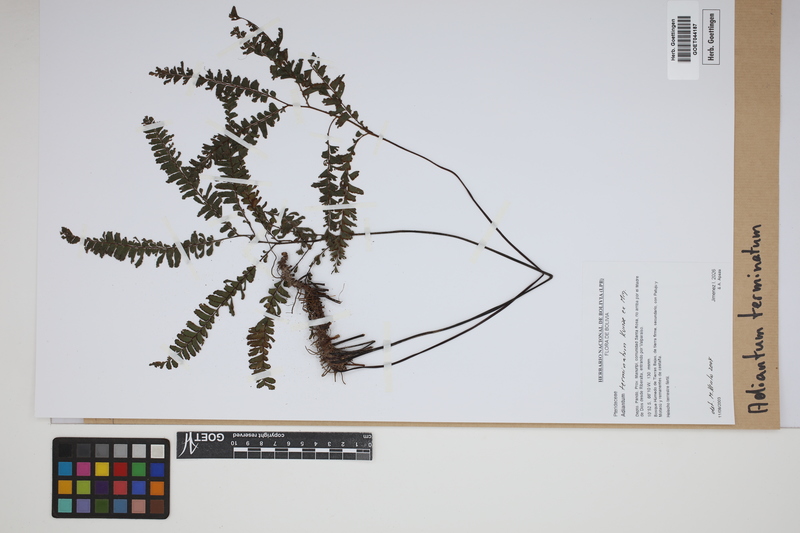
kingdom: Plantae
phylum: Tracheophyta
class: Polypodiopsida
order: Polypodiales
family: Pteridaceae
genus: Adiantum
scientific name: Adiantum terminatum
